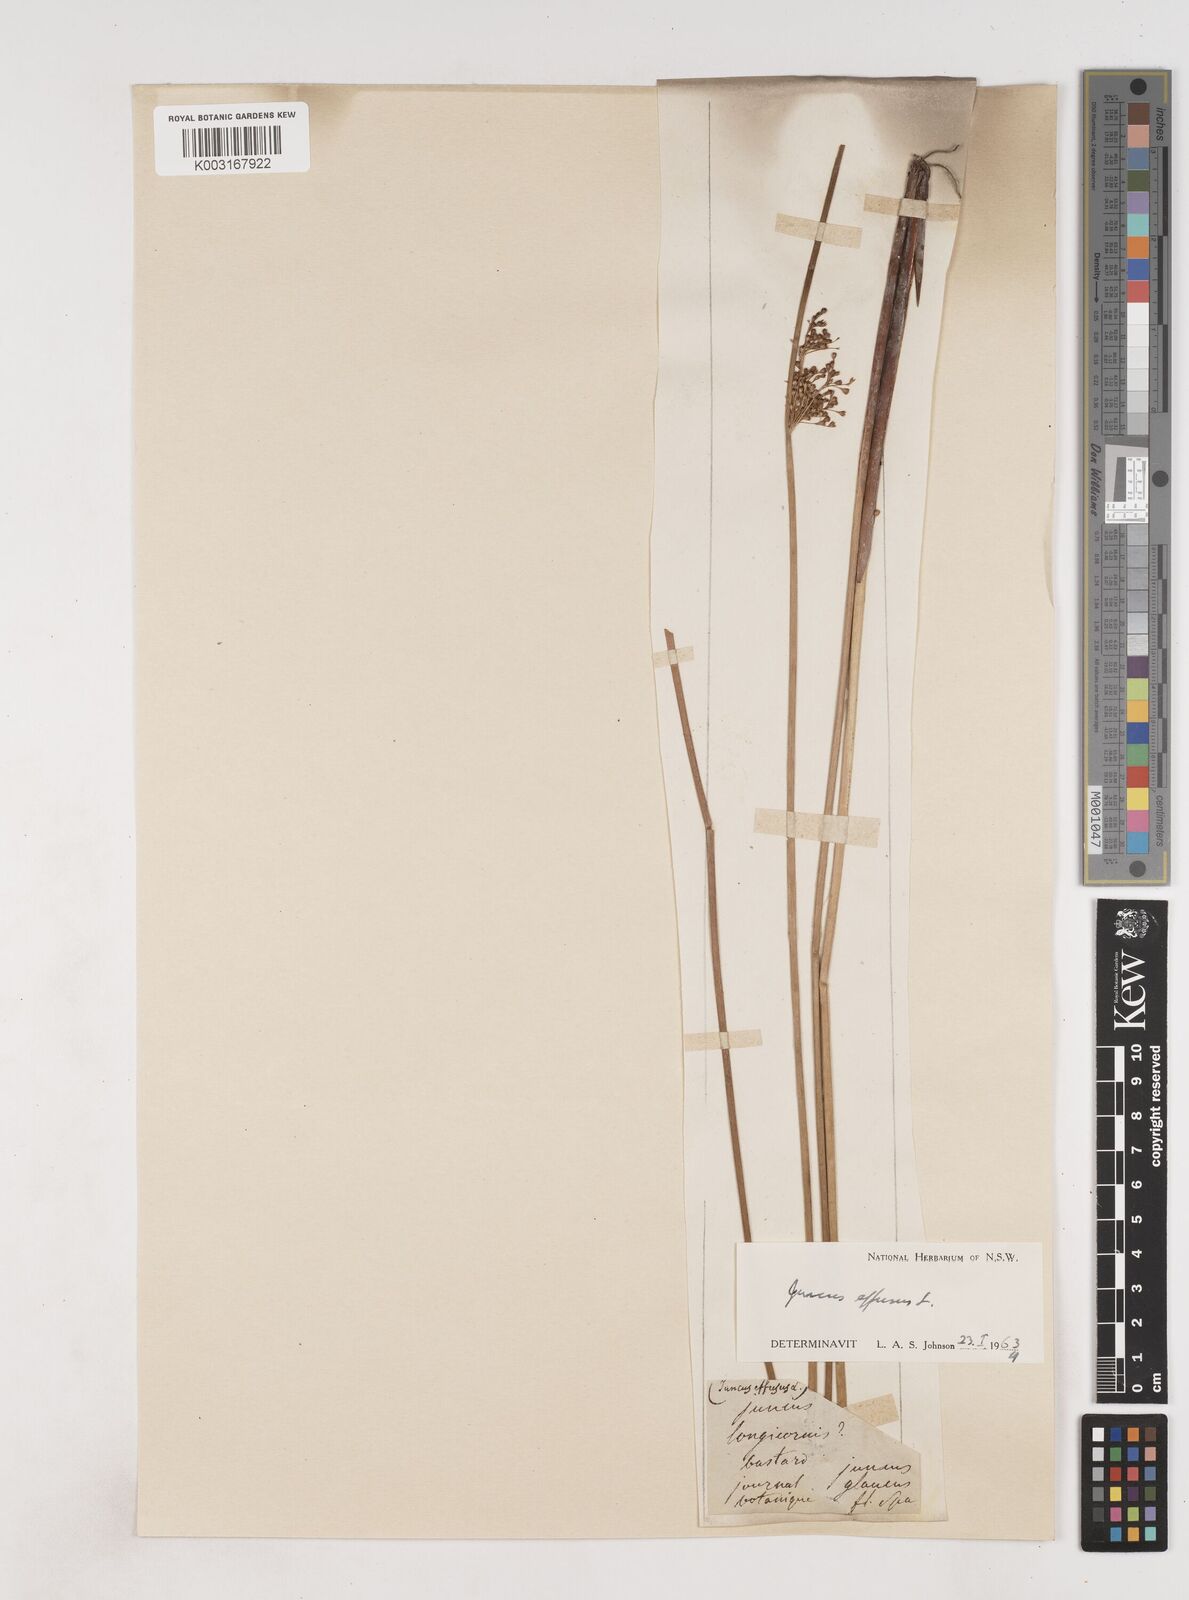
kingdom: Plantae
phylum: Tracheophyta
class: Liliopsida
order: Poales
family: Juncaceae
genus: Juncus
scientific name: Juncus effusus
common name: Soft rush
